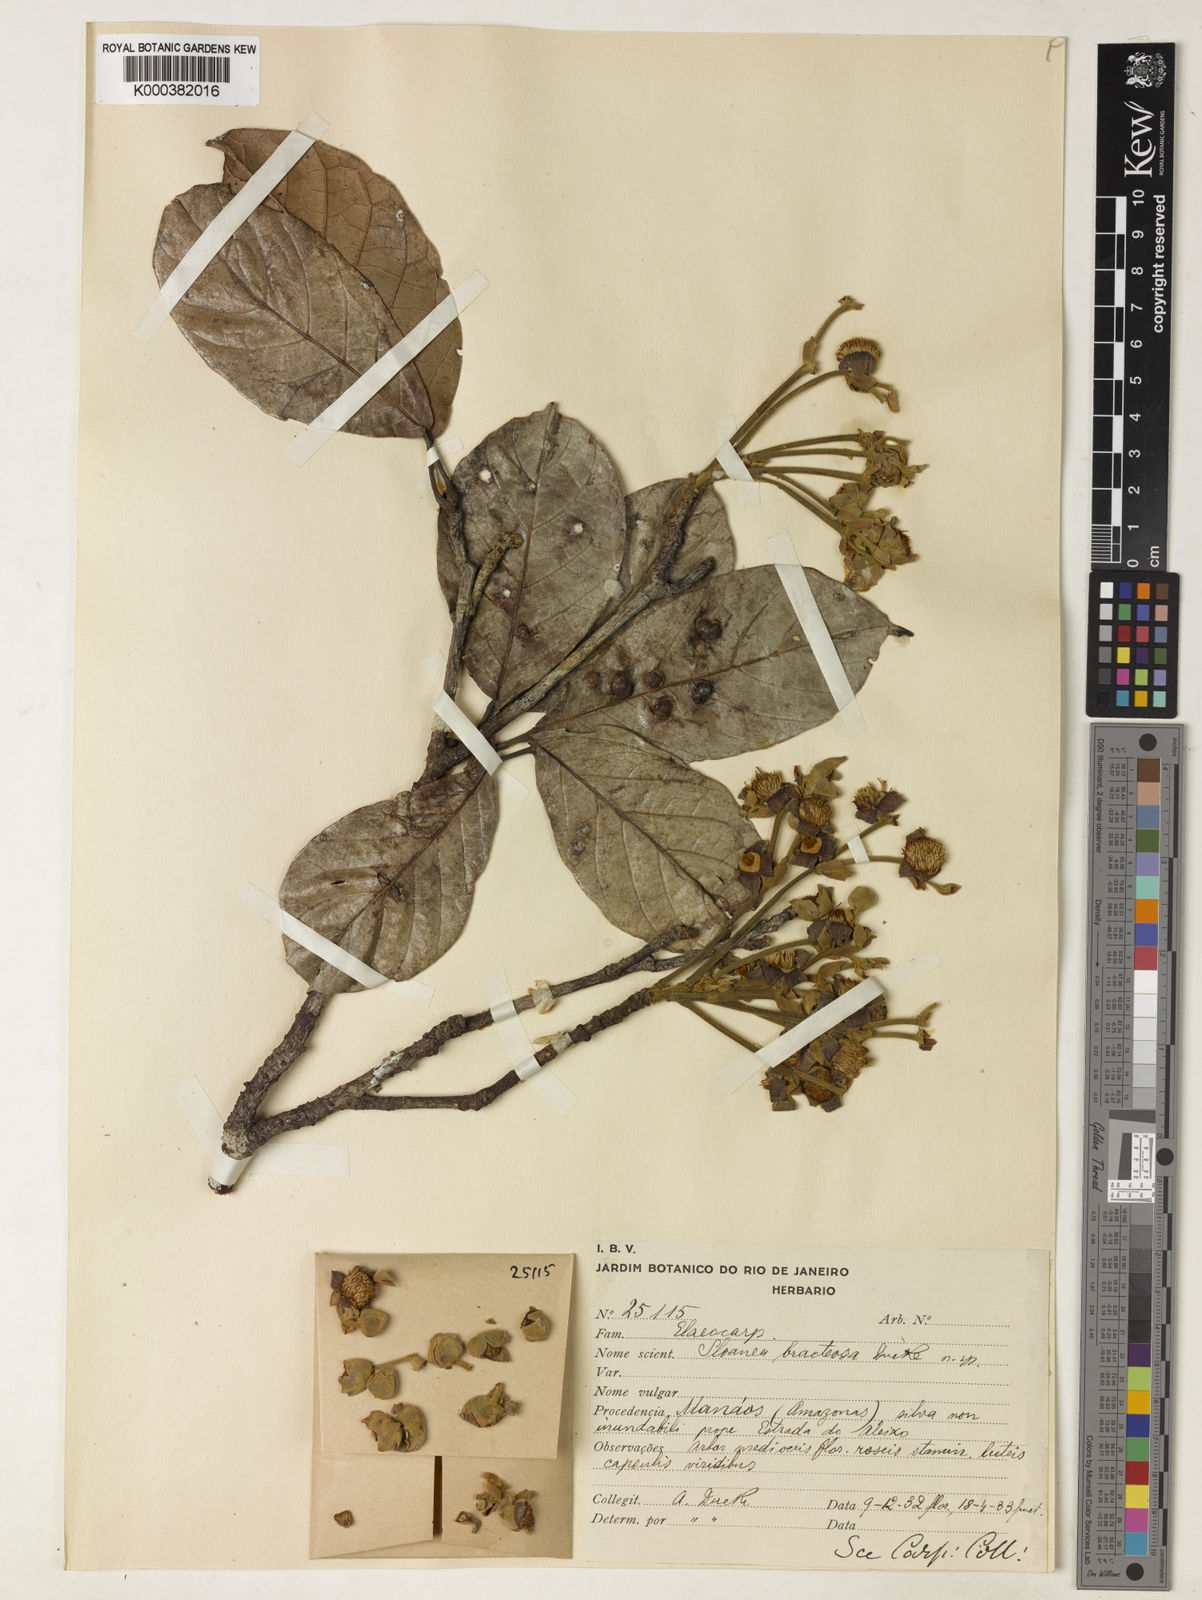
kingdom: Plantae
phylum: Tracheophyta
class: Magnoliopsida
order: Oxalidales
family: Elaeocarpaceae
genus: Sloanea
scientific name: Sloanea nitida
